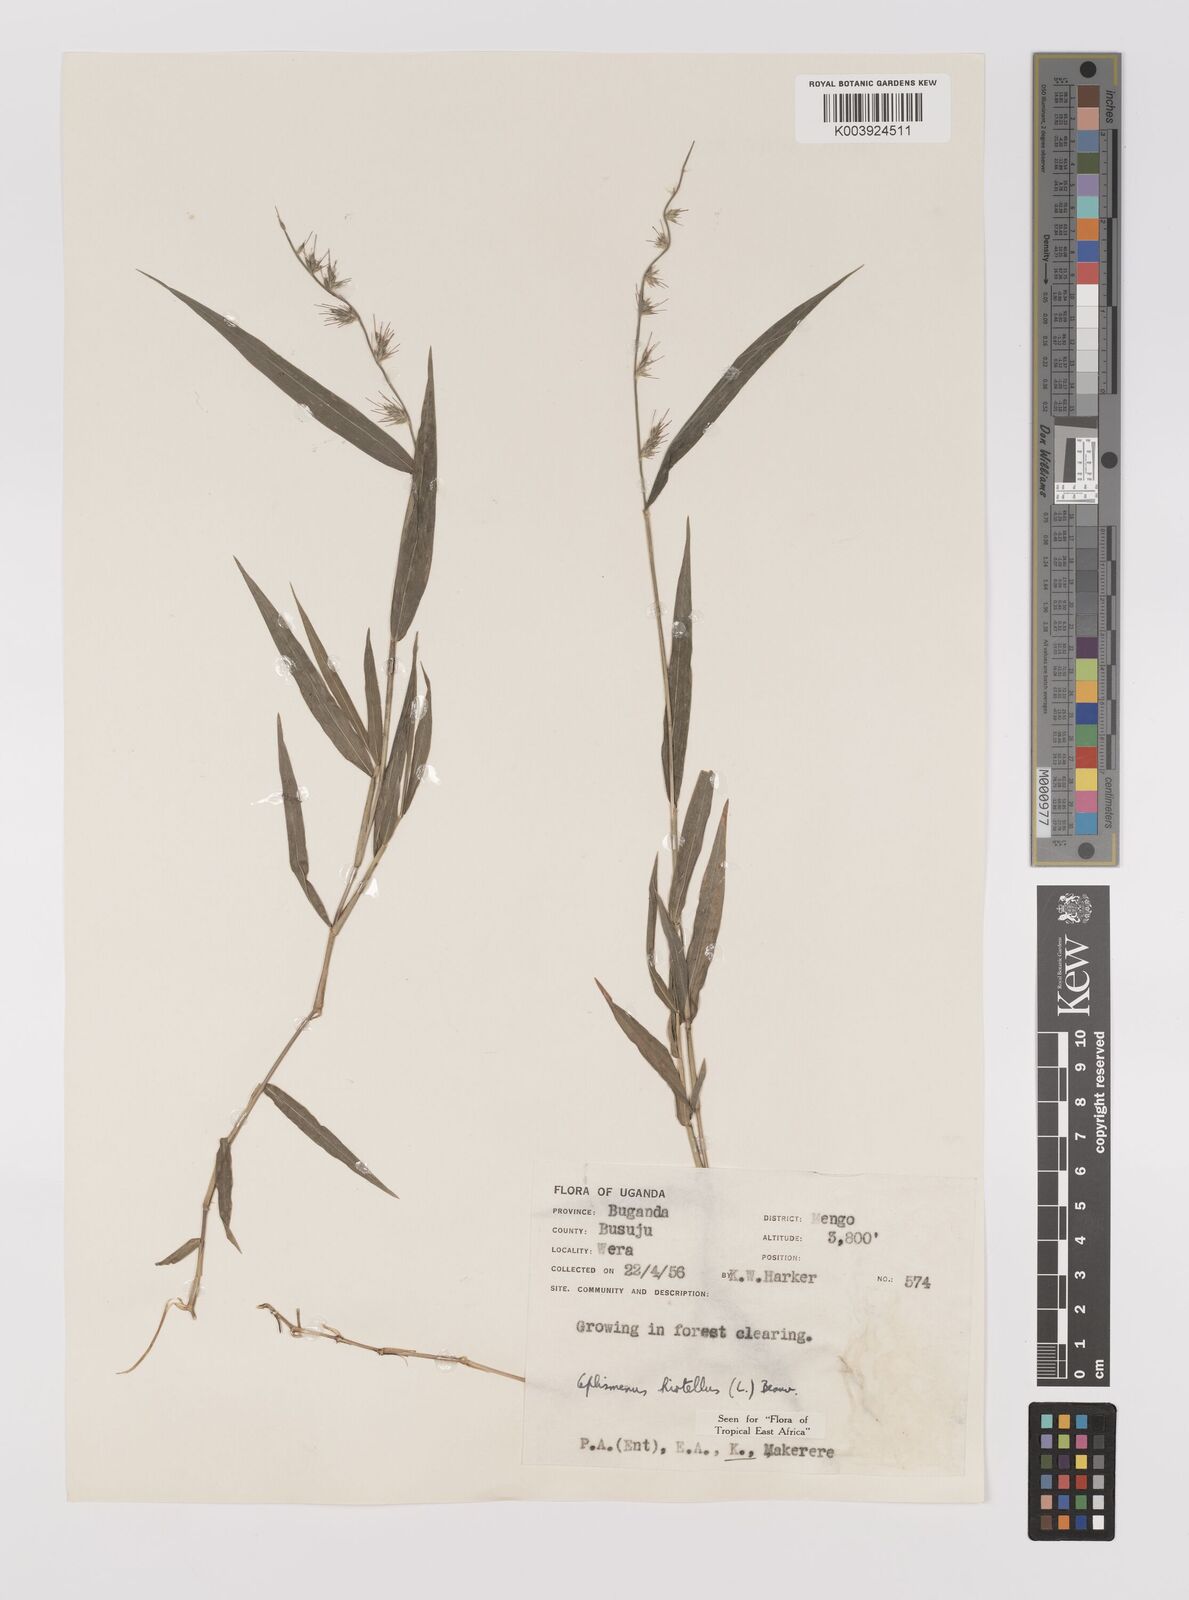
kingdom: Plantae
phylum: Tracheophyta
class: Liliopsida
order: Poales
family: Poaceae
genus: Oplismenus
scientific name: Oplismenus hirtellus
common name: Basketgrass
